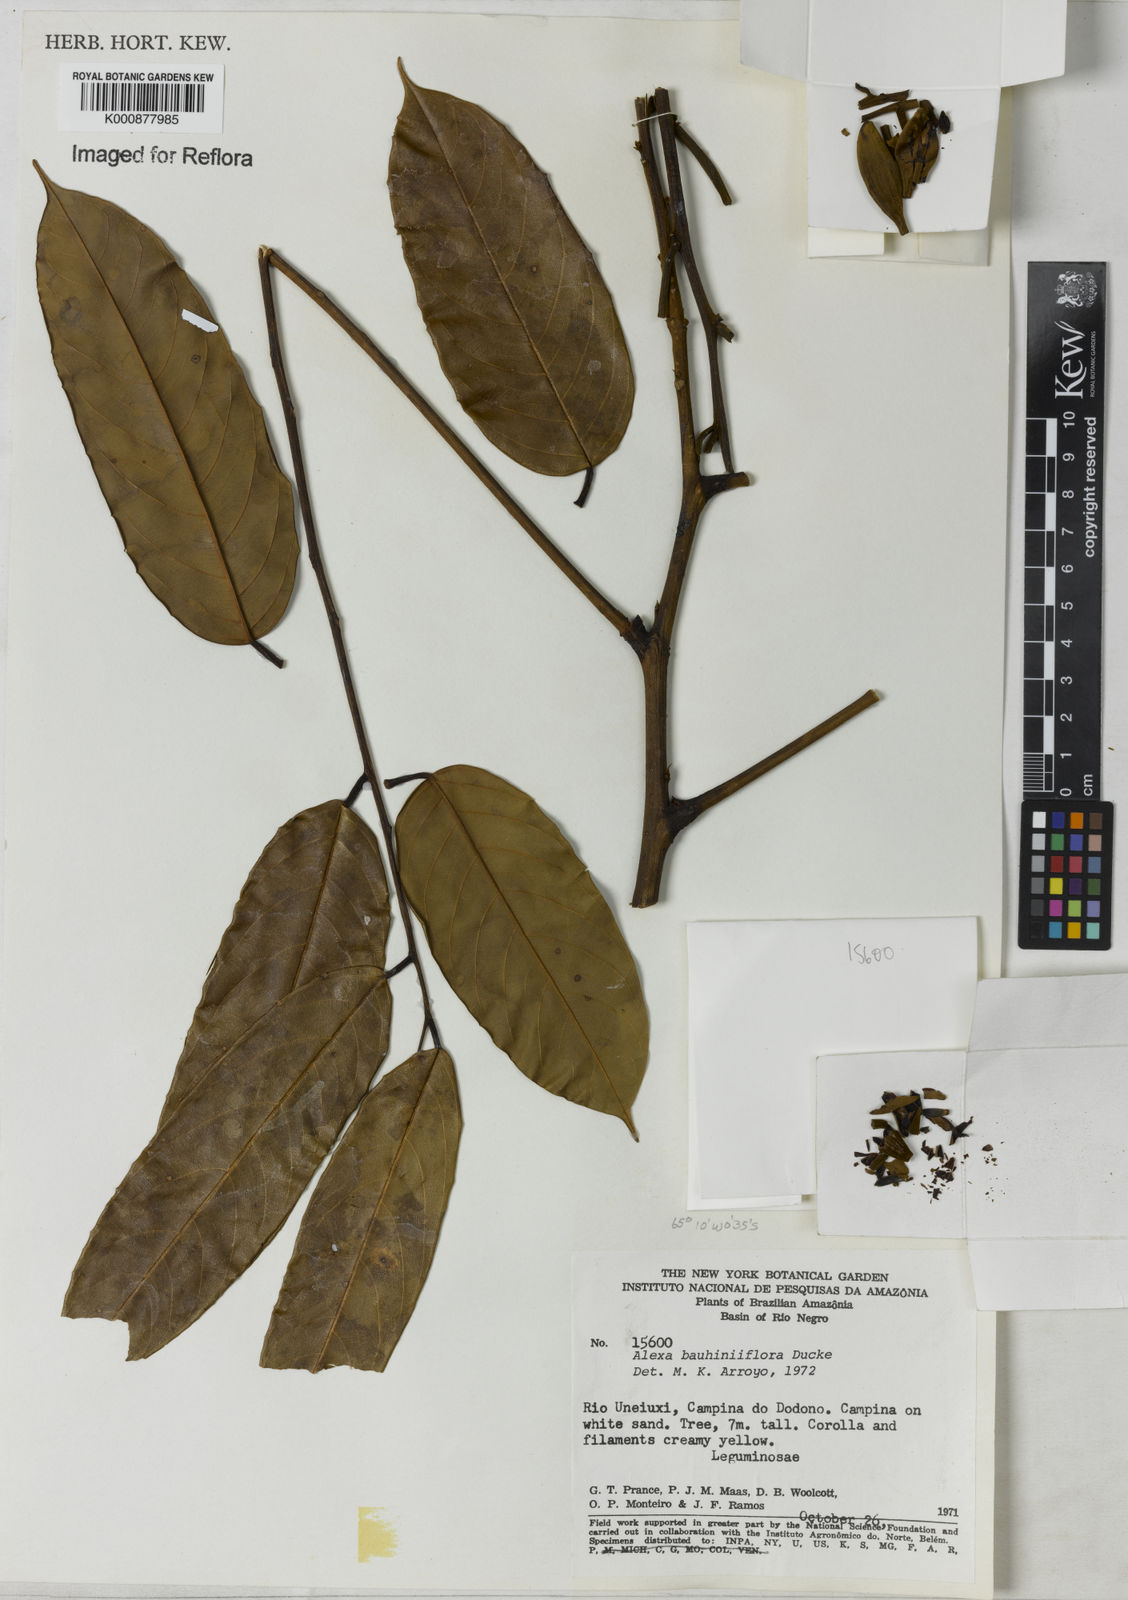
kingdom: Plantae
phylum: Tracheophyta
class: Magnoliopsida
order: Fabales
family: Fabaceae
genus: Alexa
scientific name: Alexa bauhiniiflora
